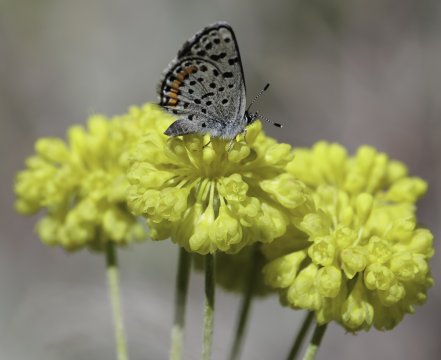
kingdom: Animalia
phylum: Arthropoda
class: Insecta
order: Lepidoptera
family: Lycaenidae
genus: Euphilotes
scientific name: Euphilotes battoides
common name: Glaucon Blue
